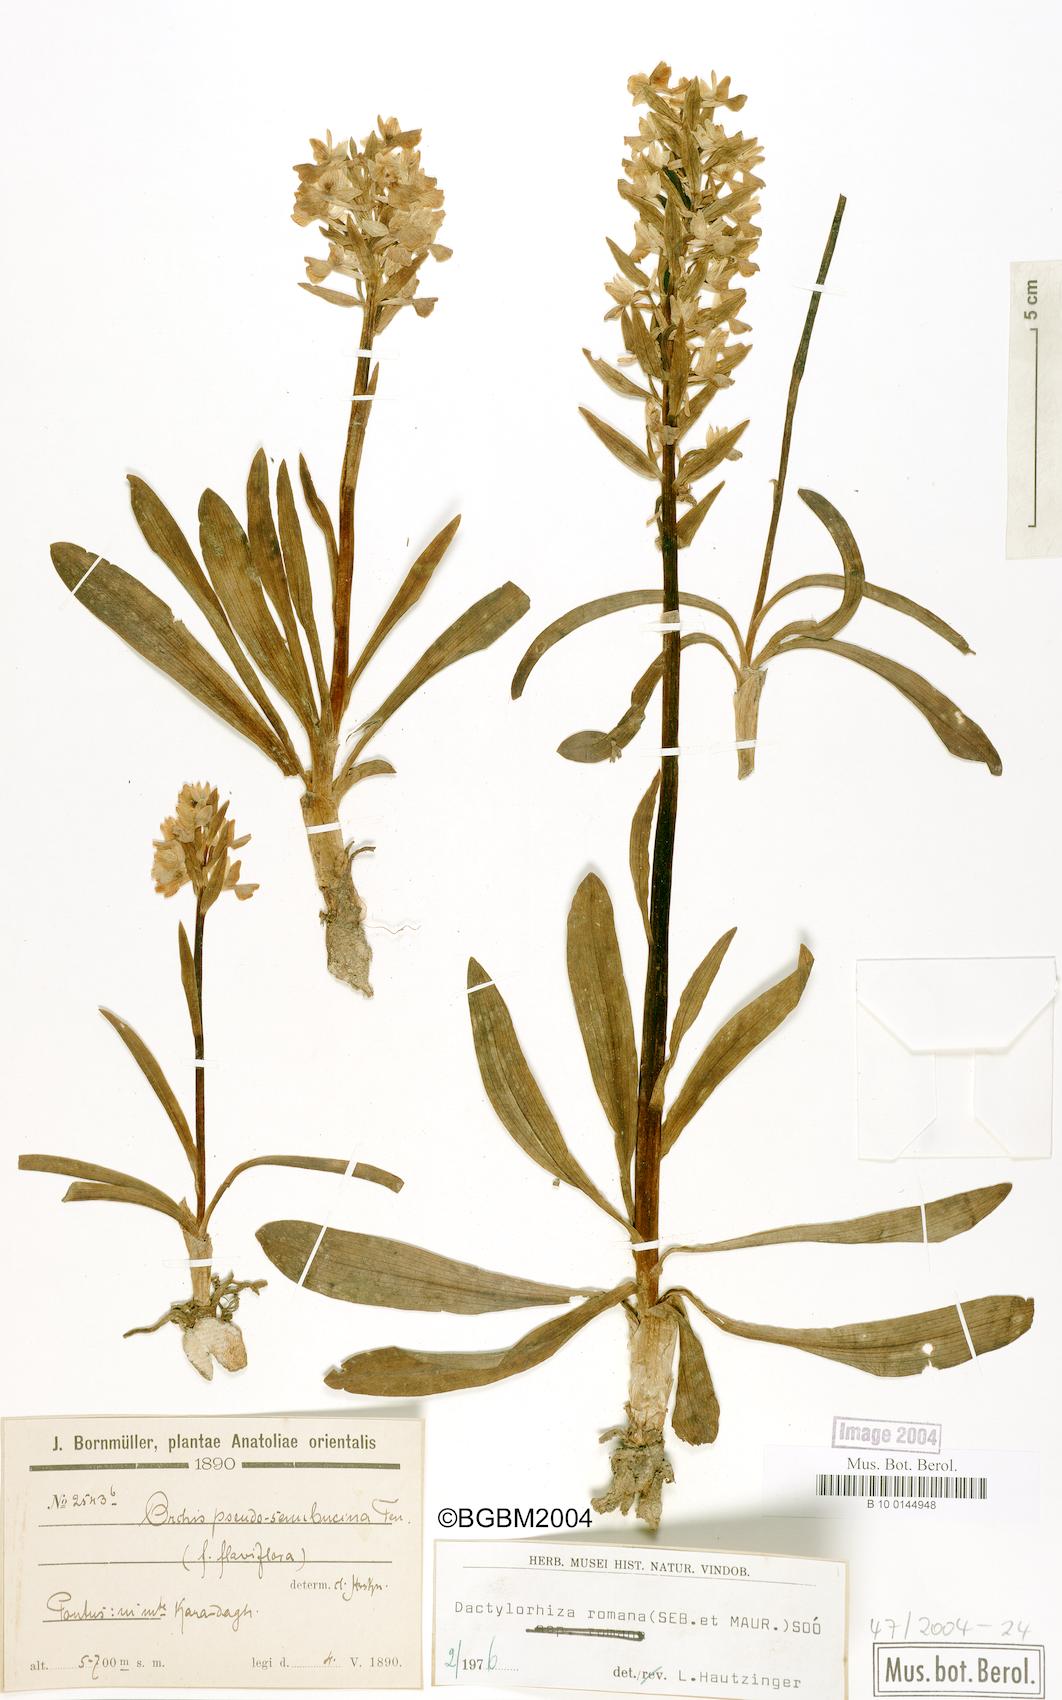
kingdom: Plantae
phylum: Tracheophyta
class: Liliopsida
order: Asparagales
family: Orchidaceae
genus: Dactylorhiza
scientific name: Dactylorhiza romana
